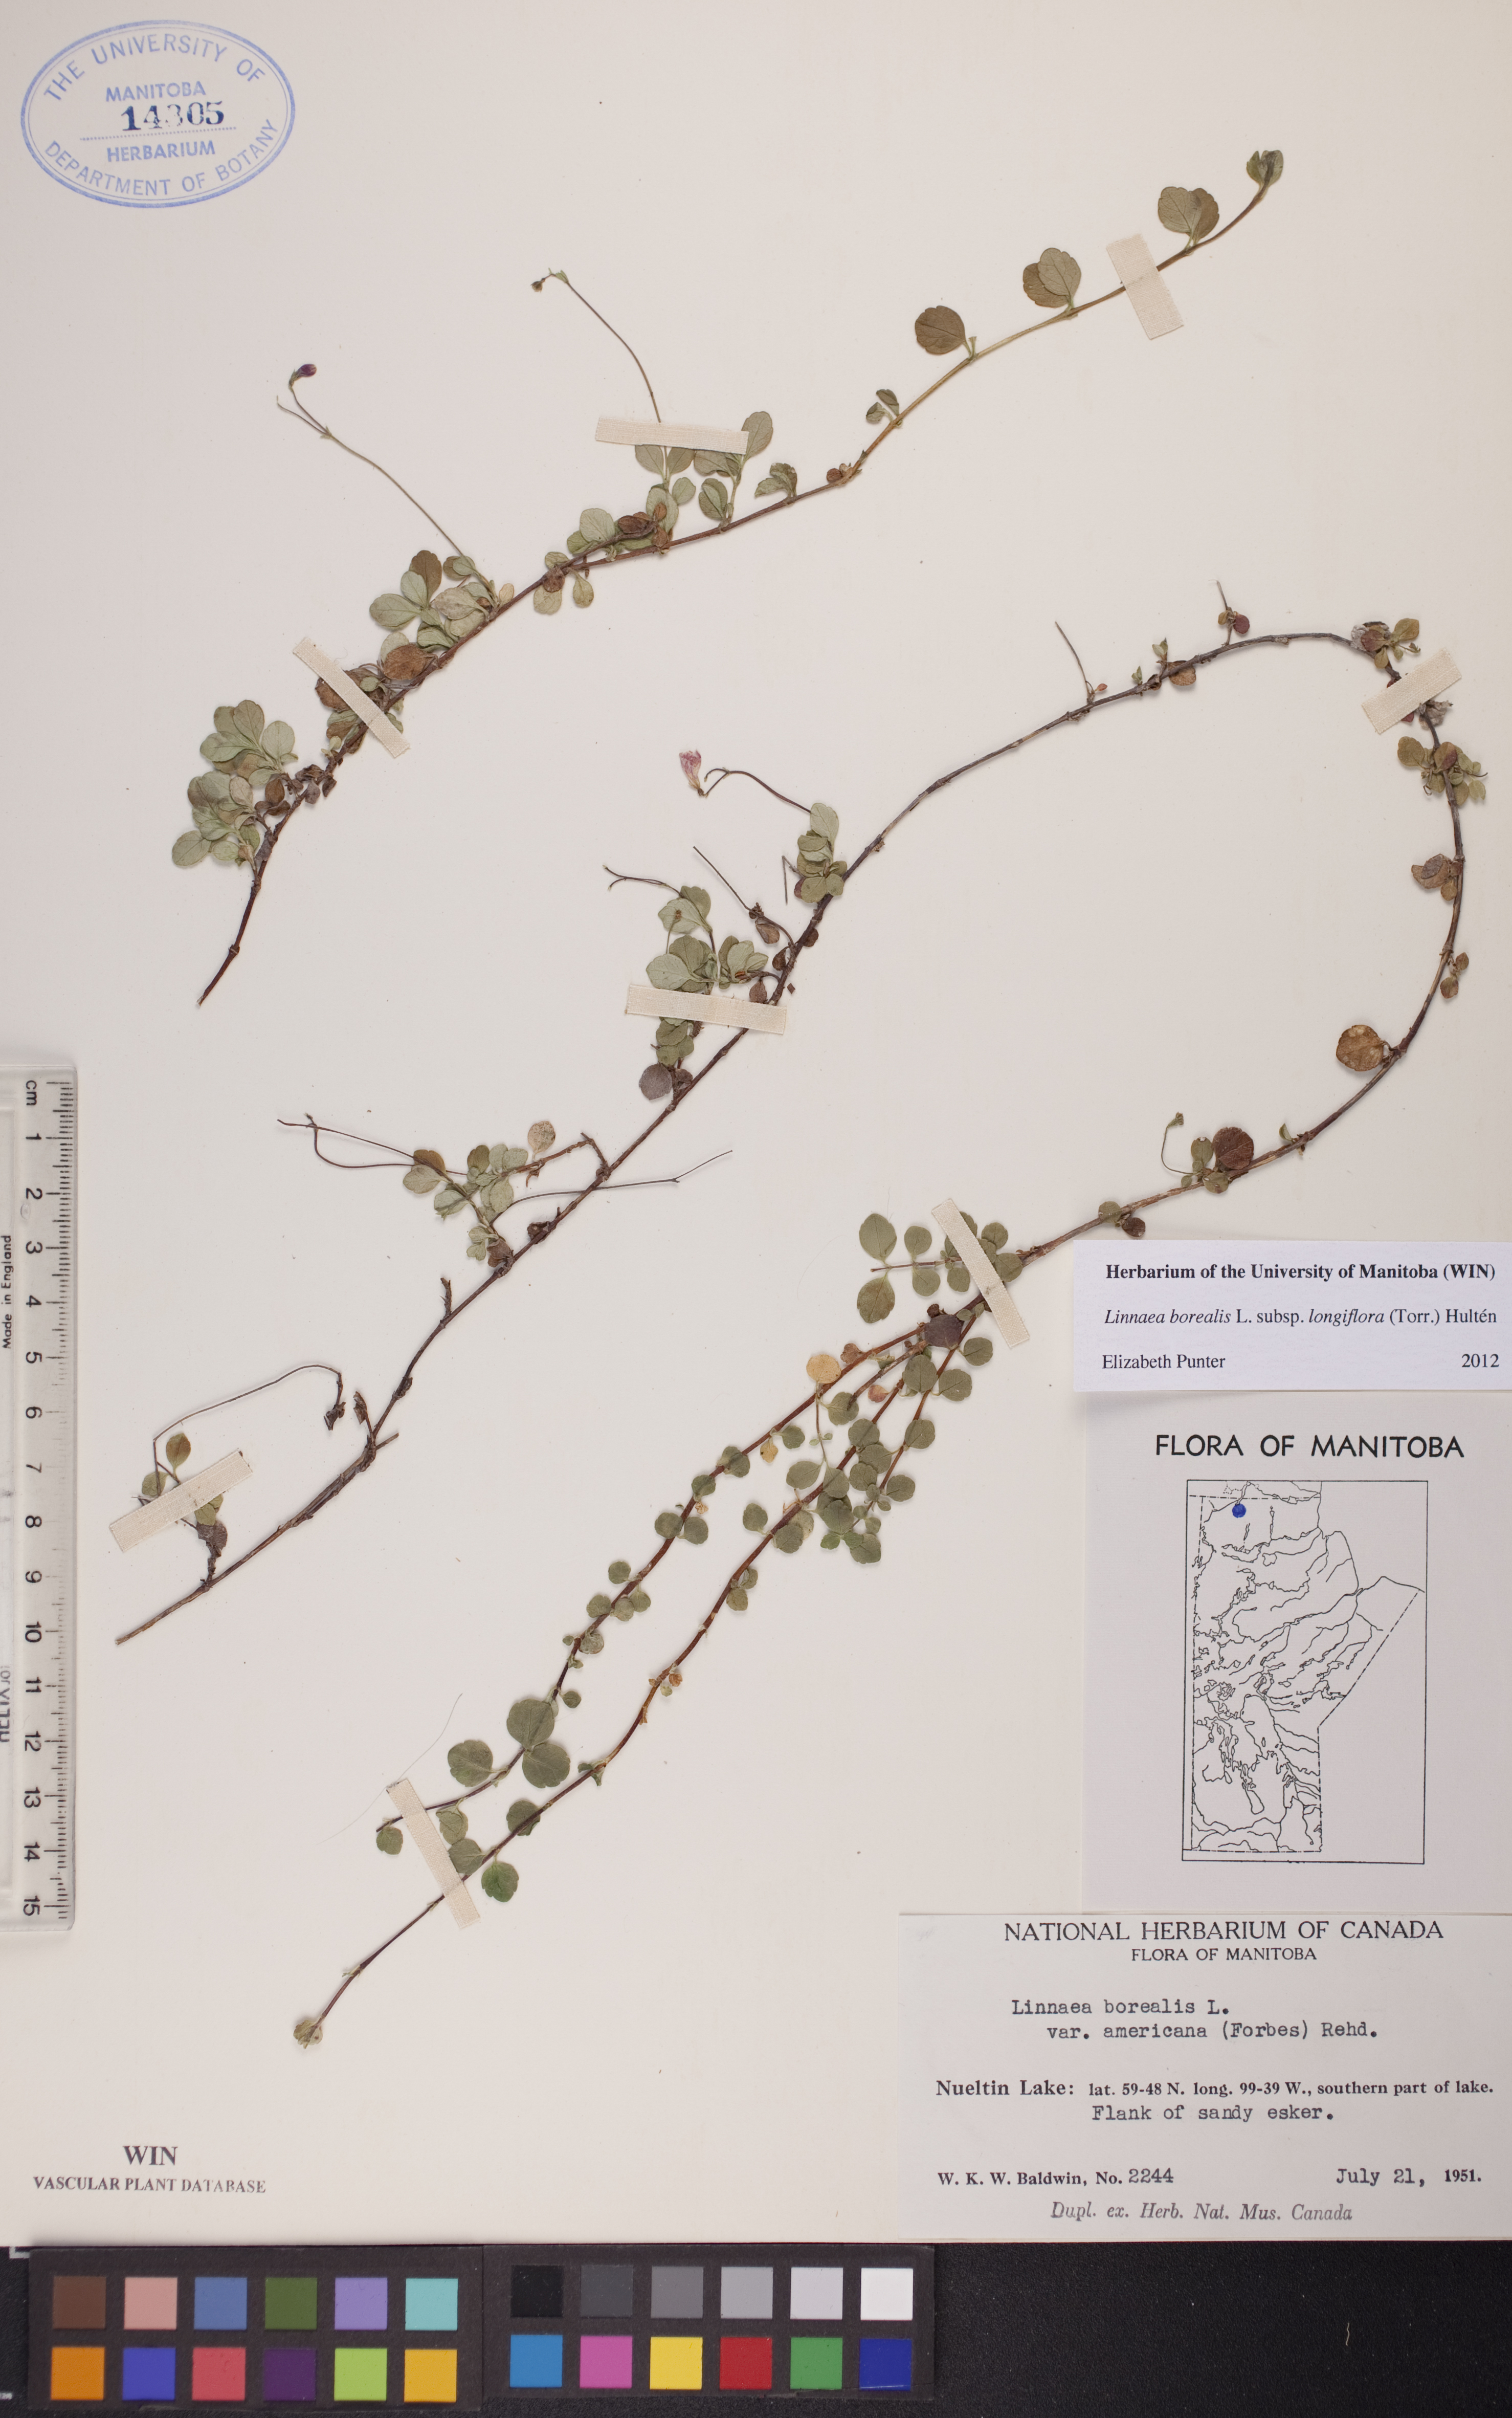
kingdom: Plantae
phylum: Tracheophyta
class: Magnoliopsida
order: Dipsacales
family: Caprifoliaceae
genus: Linnaea
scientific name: Linnaea borealis
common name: Twinflower
